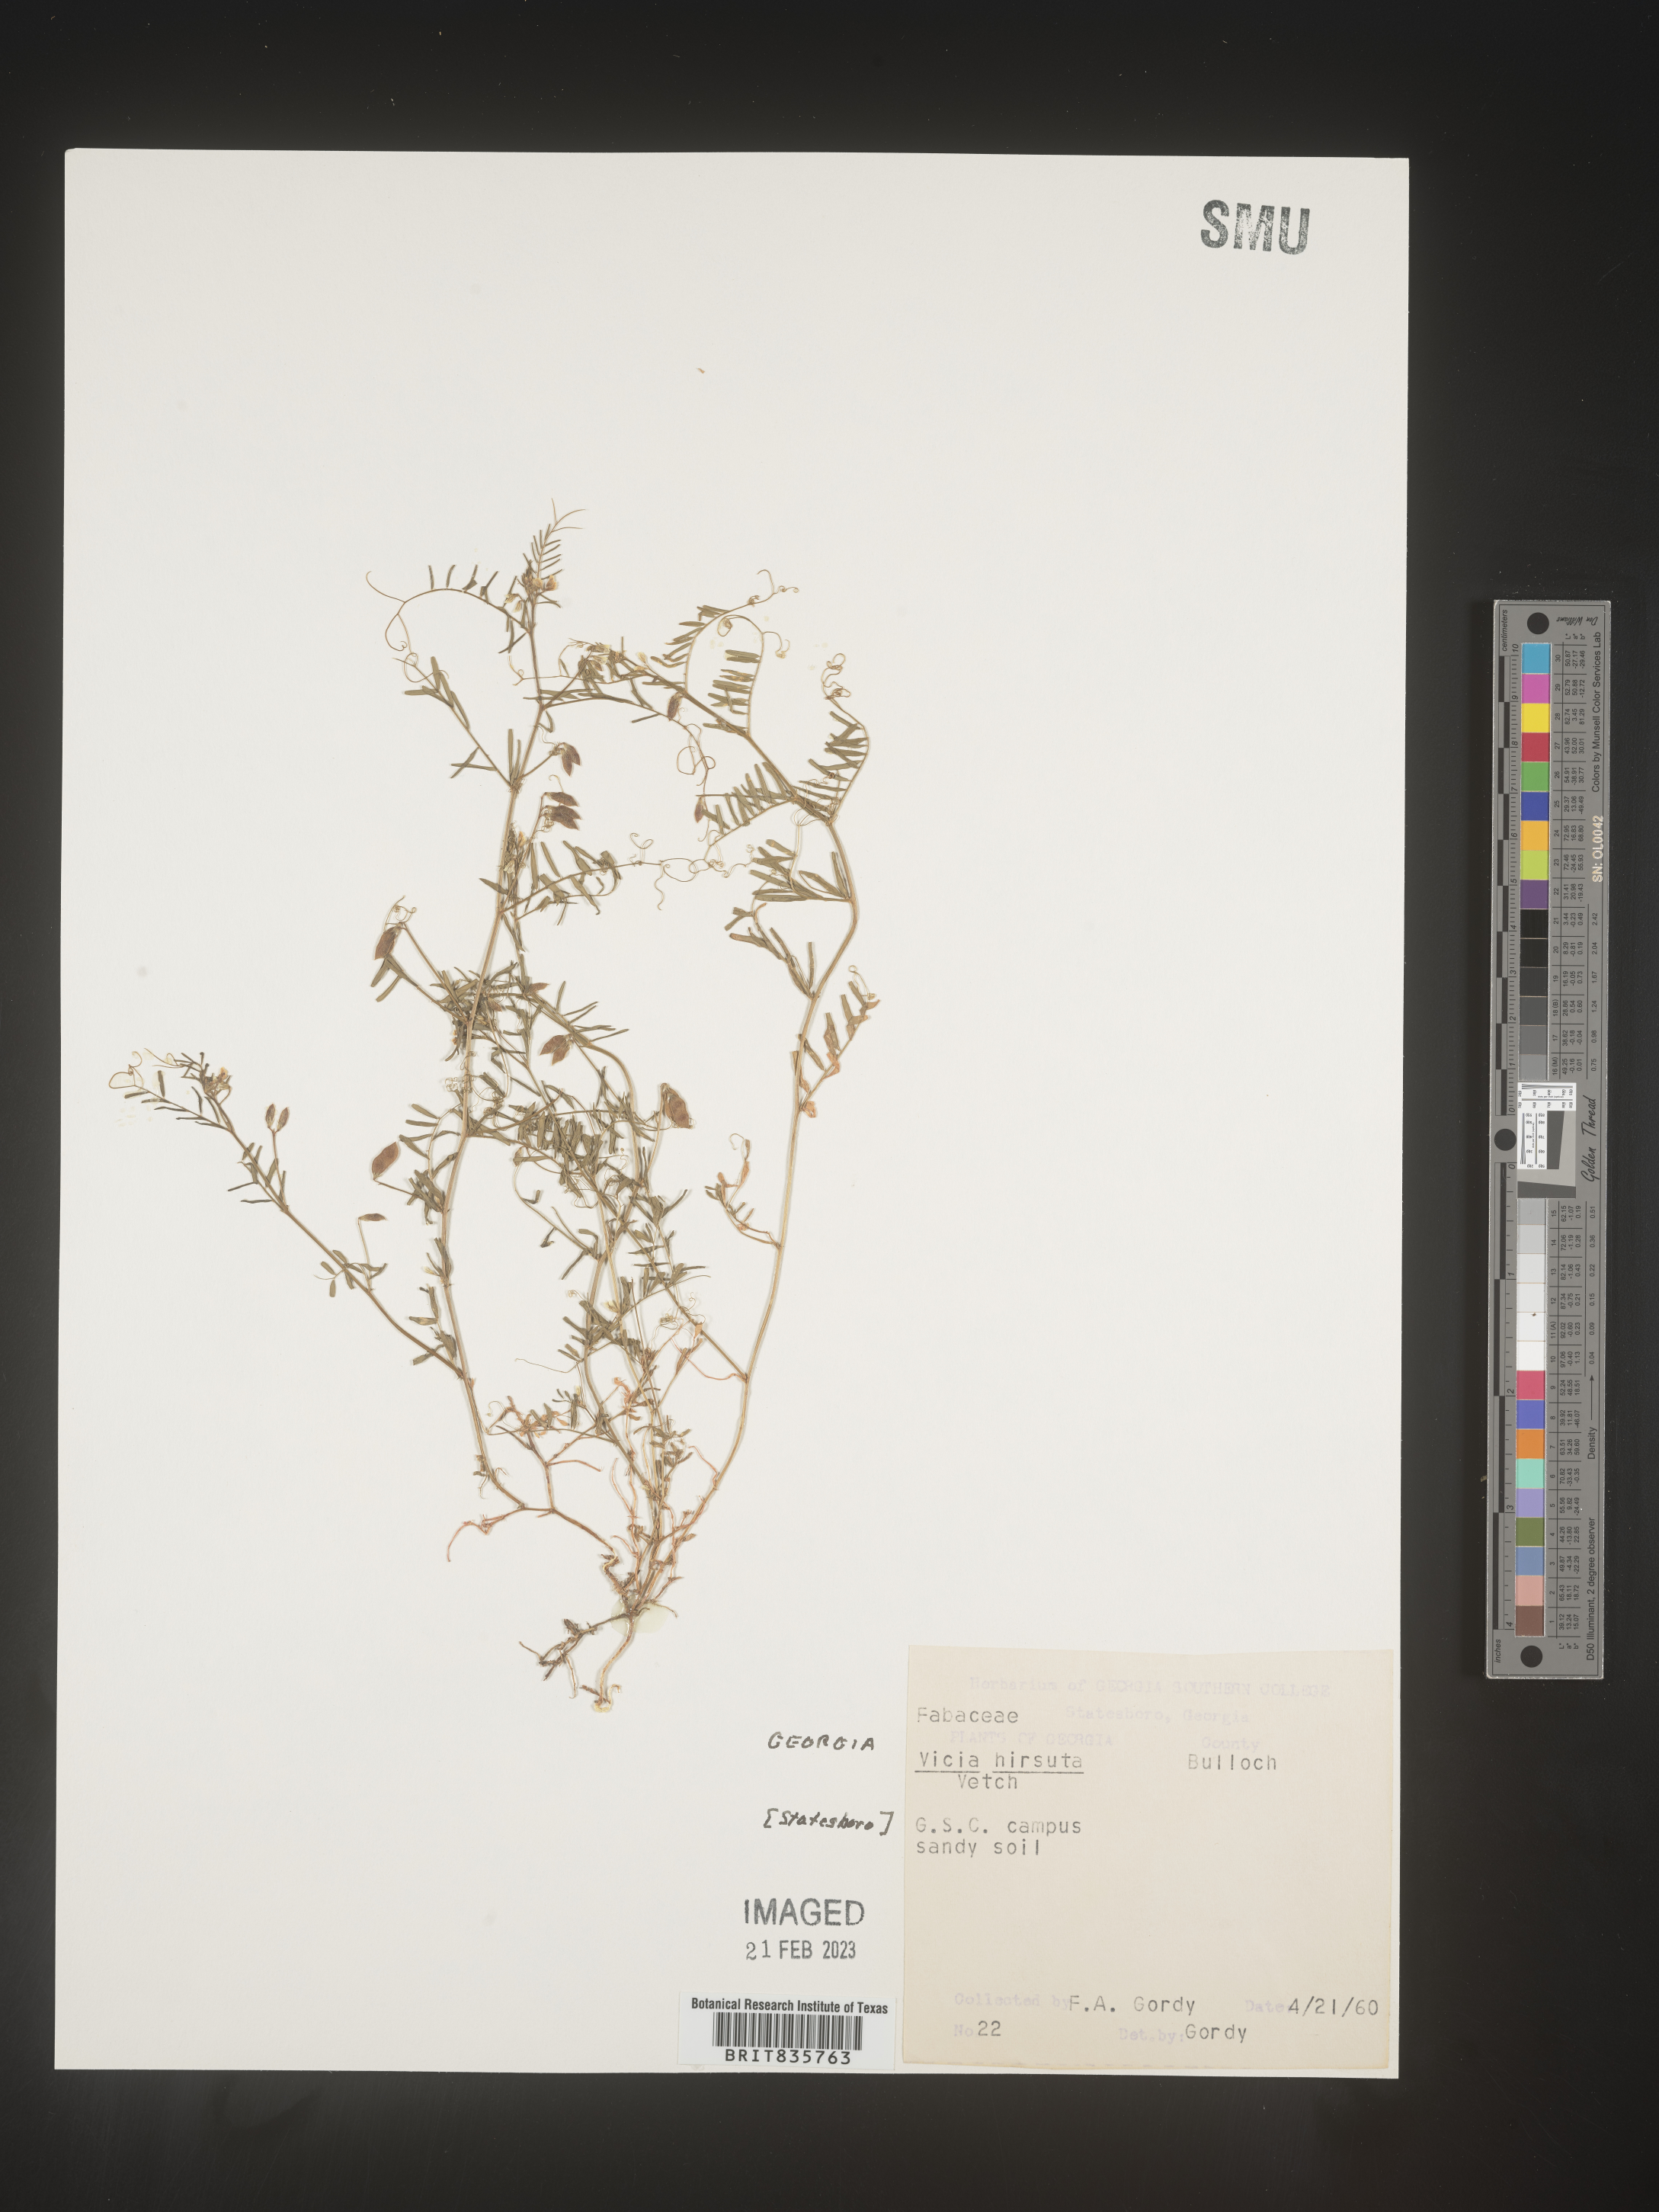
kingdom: Plantae
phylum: Tracheophyta
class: Magnoliopsida
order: Fabales
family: Fabaceae
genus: Vicia
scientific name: Vicia
